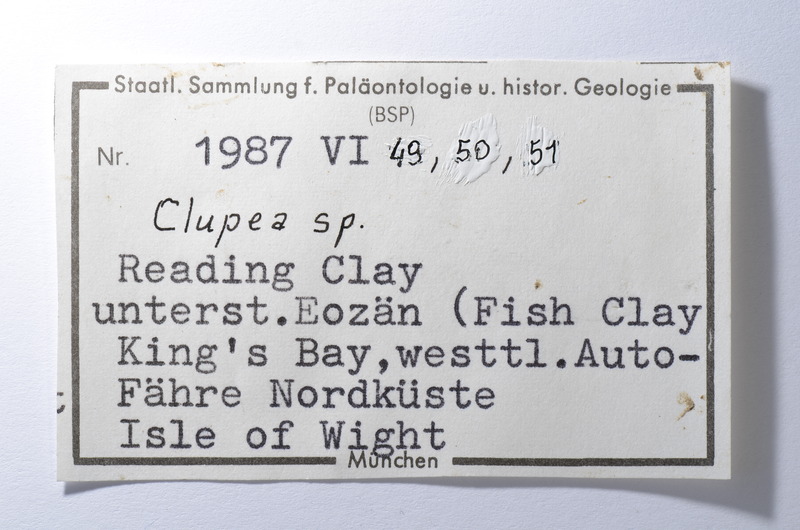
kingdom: Animalia
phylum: Chordata
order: Clupeiformes
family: Clupeidae
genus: Clupea
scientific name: Clupea
